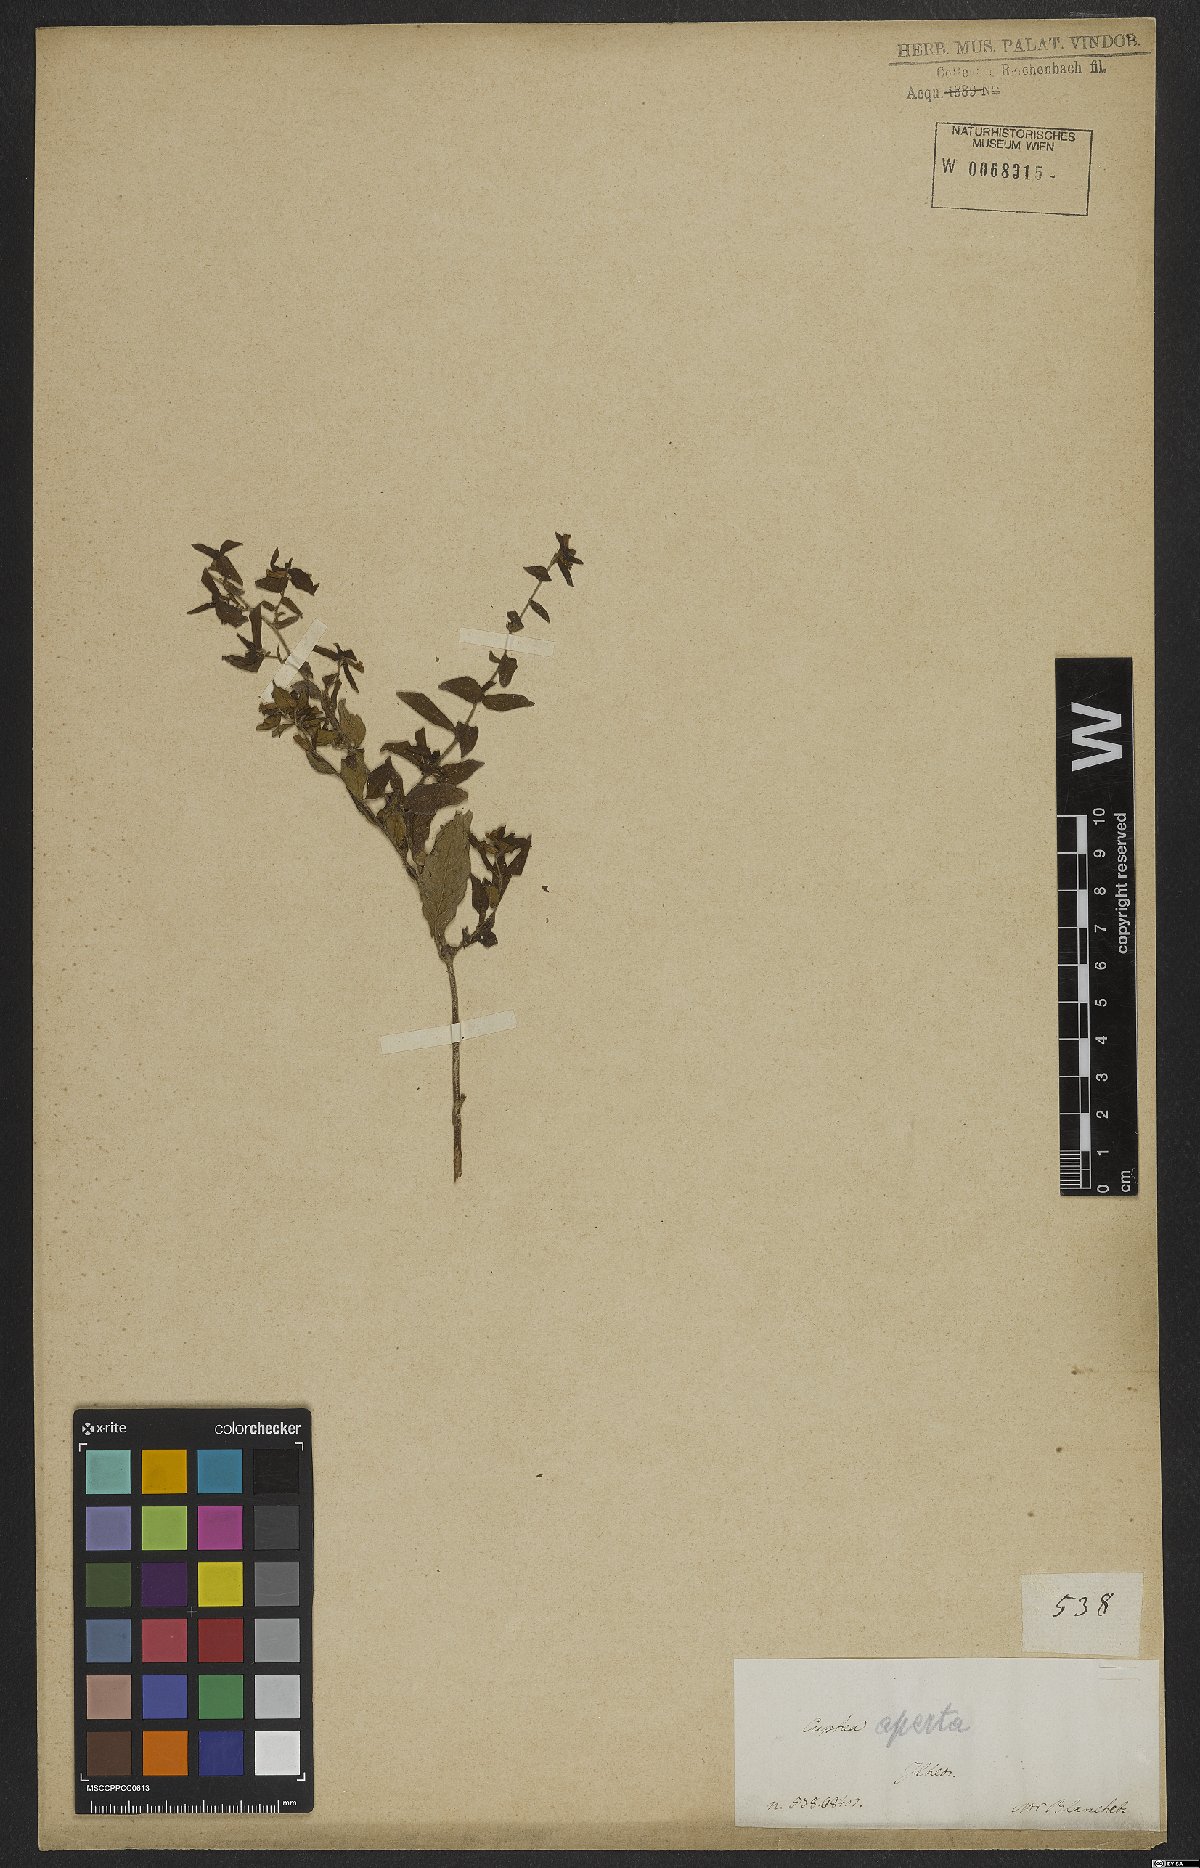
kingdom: Plantae
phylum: Tracheophyta
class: Magnoliopsida
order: Myrtales
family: Lythraceae
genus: Cuphea
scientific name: Cuphea aperta
